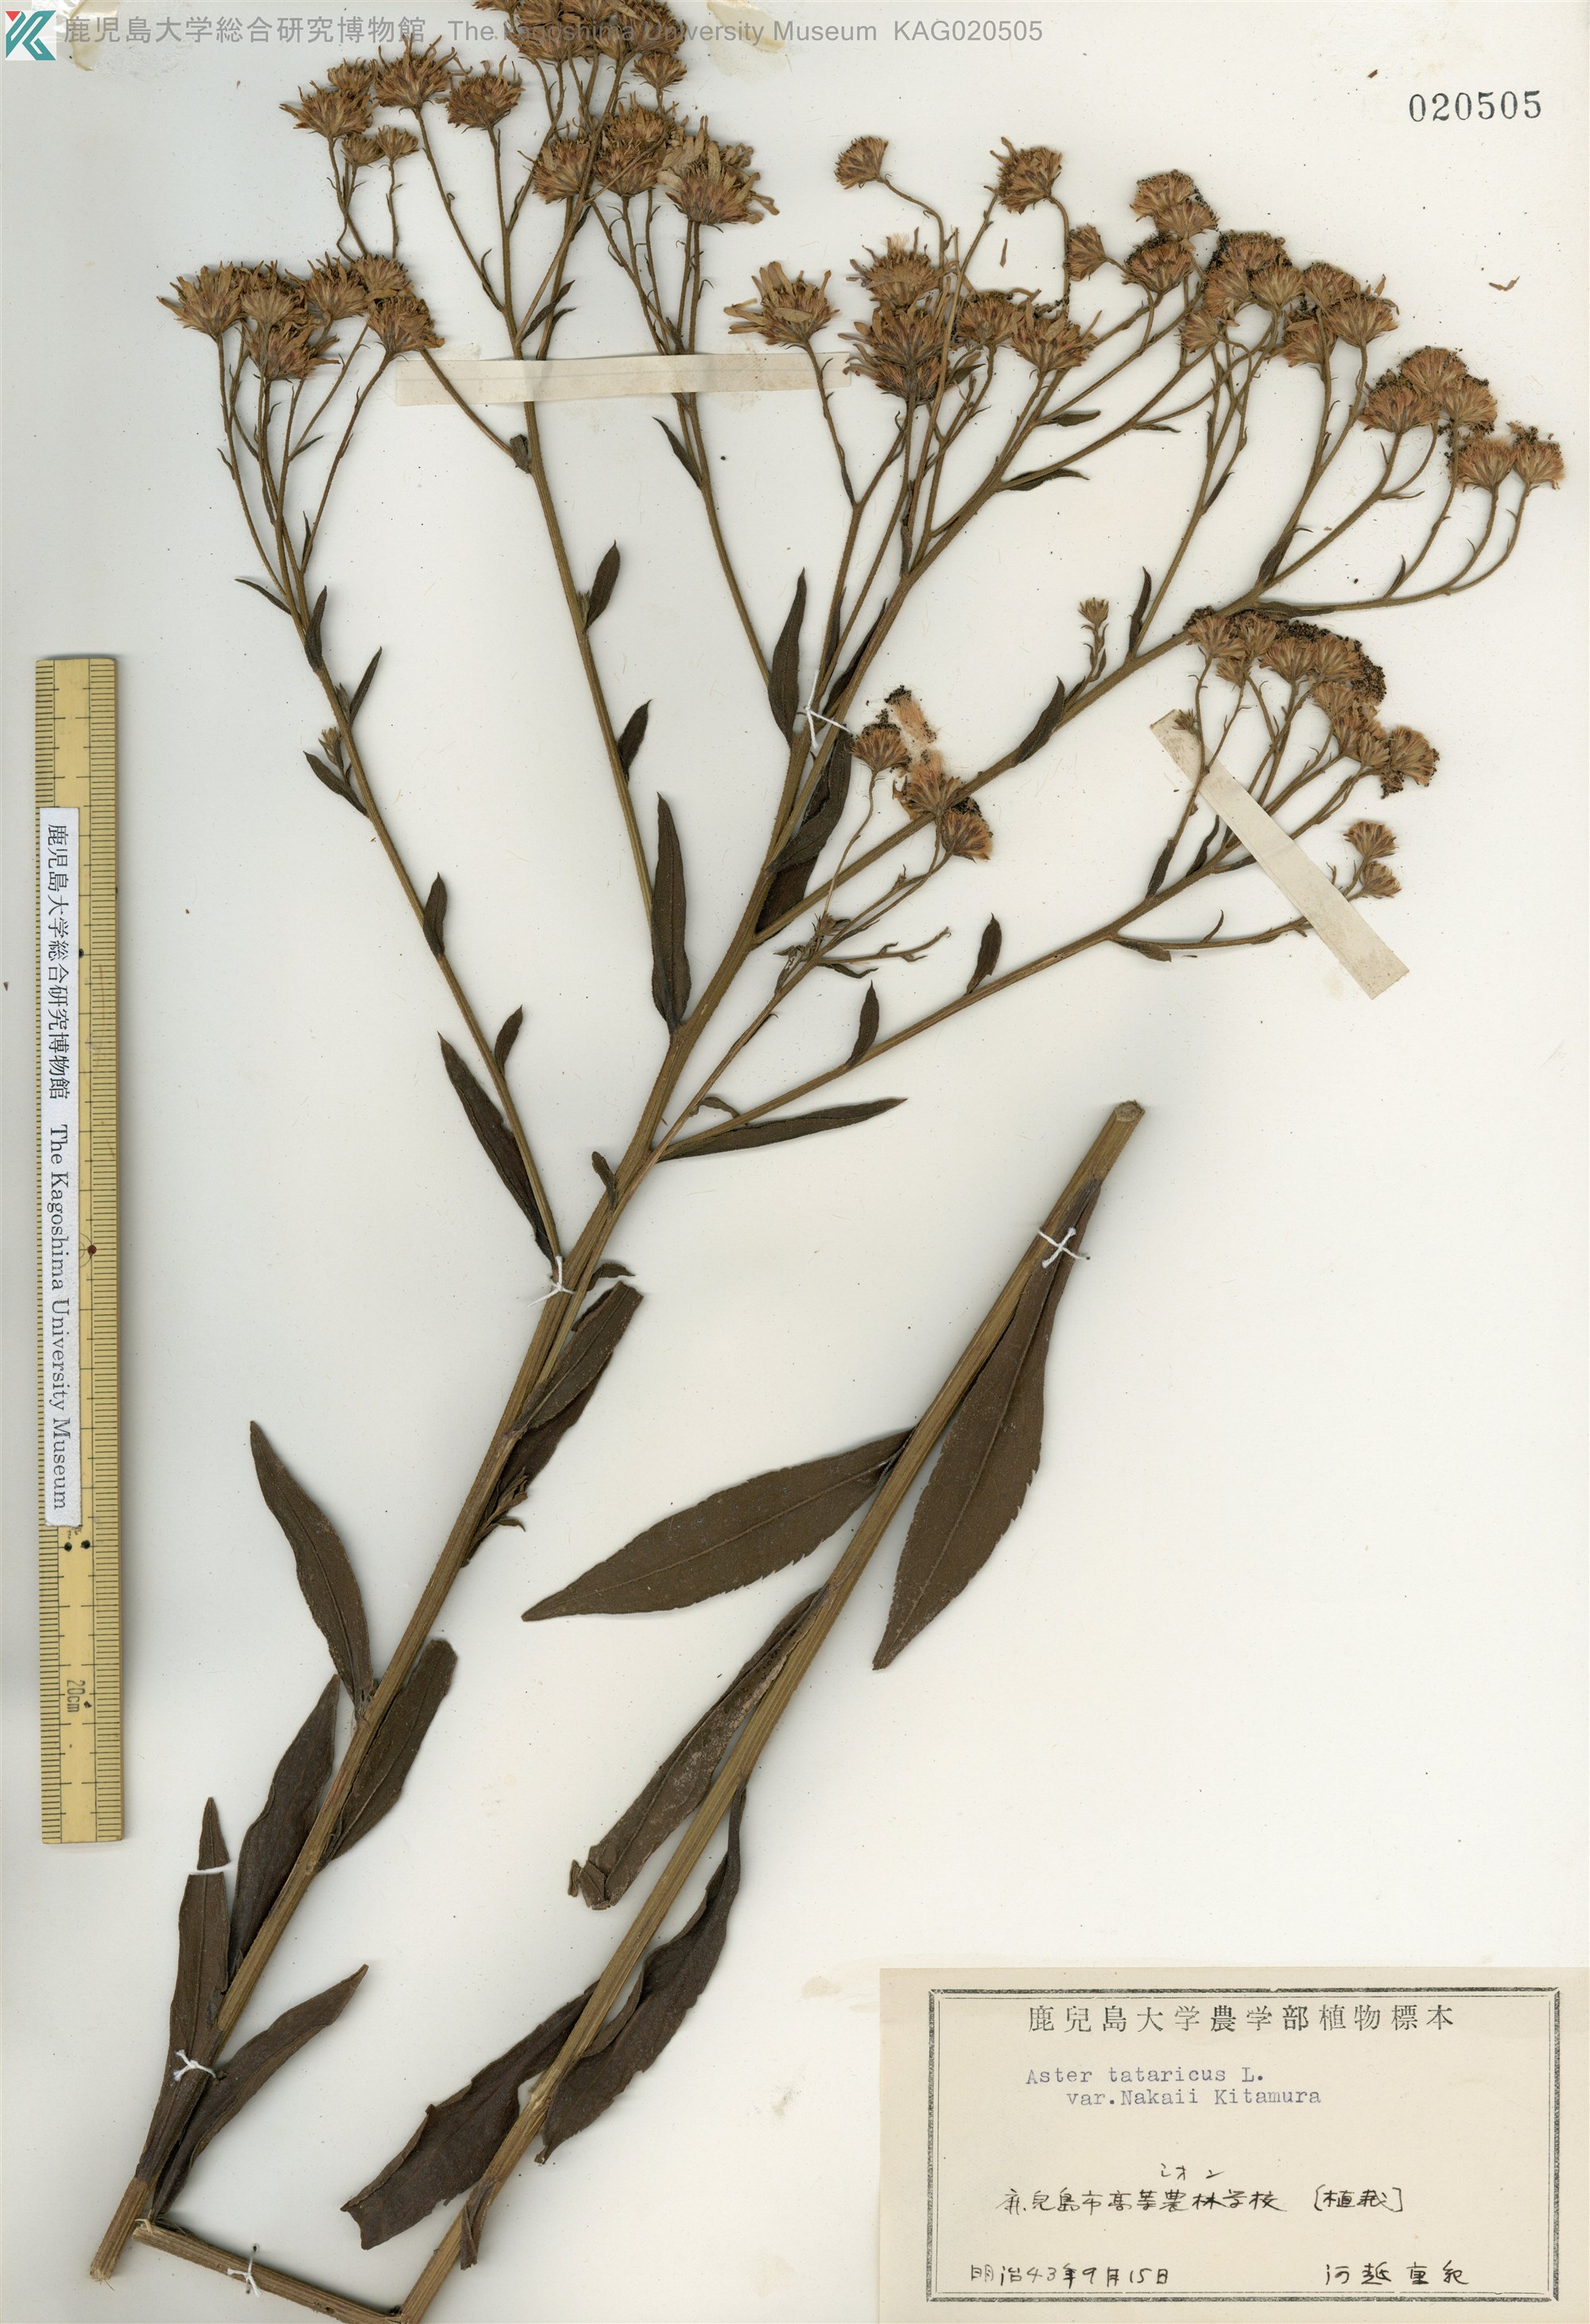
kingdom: Plantae
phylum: Tracheophyta
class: Magnoliopsida
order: Asterales
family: Asteraceae
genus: Aster
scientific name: Aster tataricus
